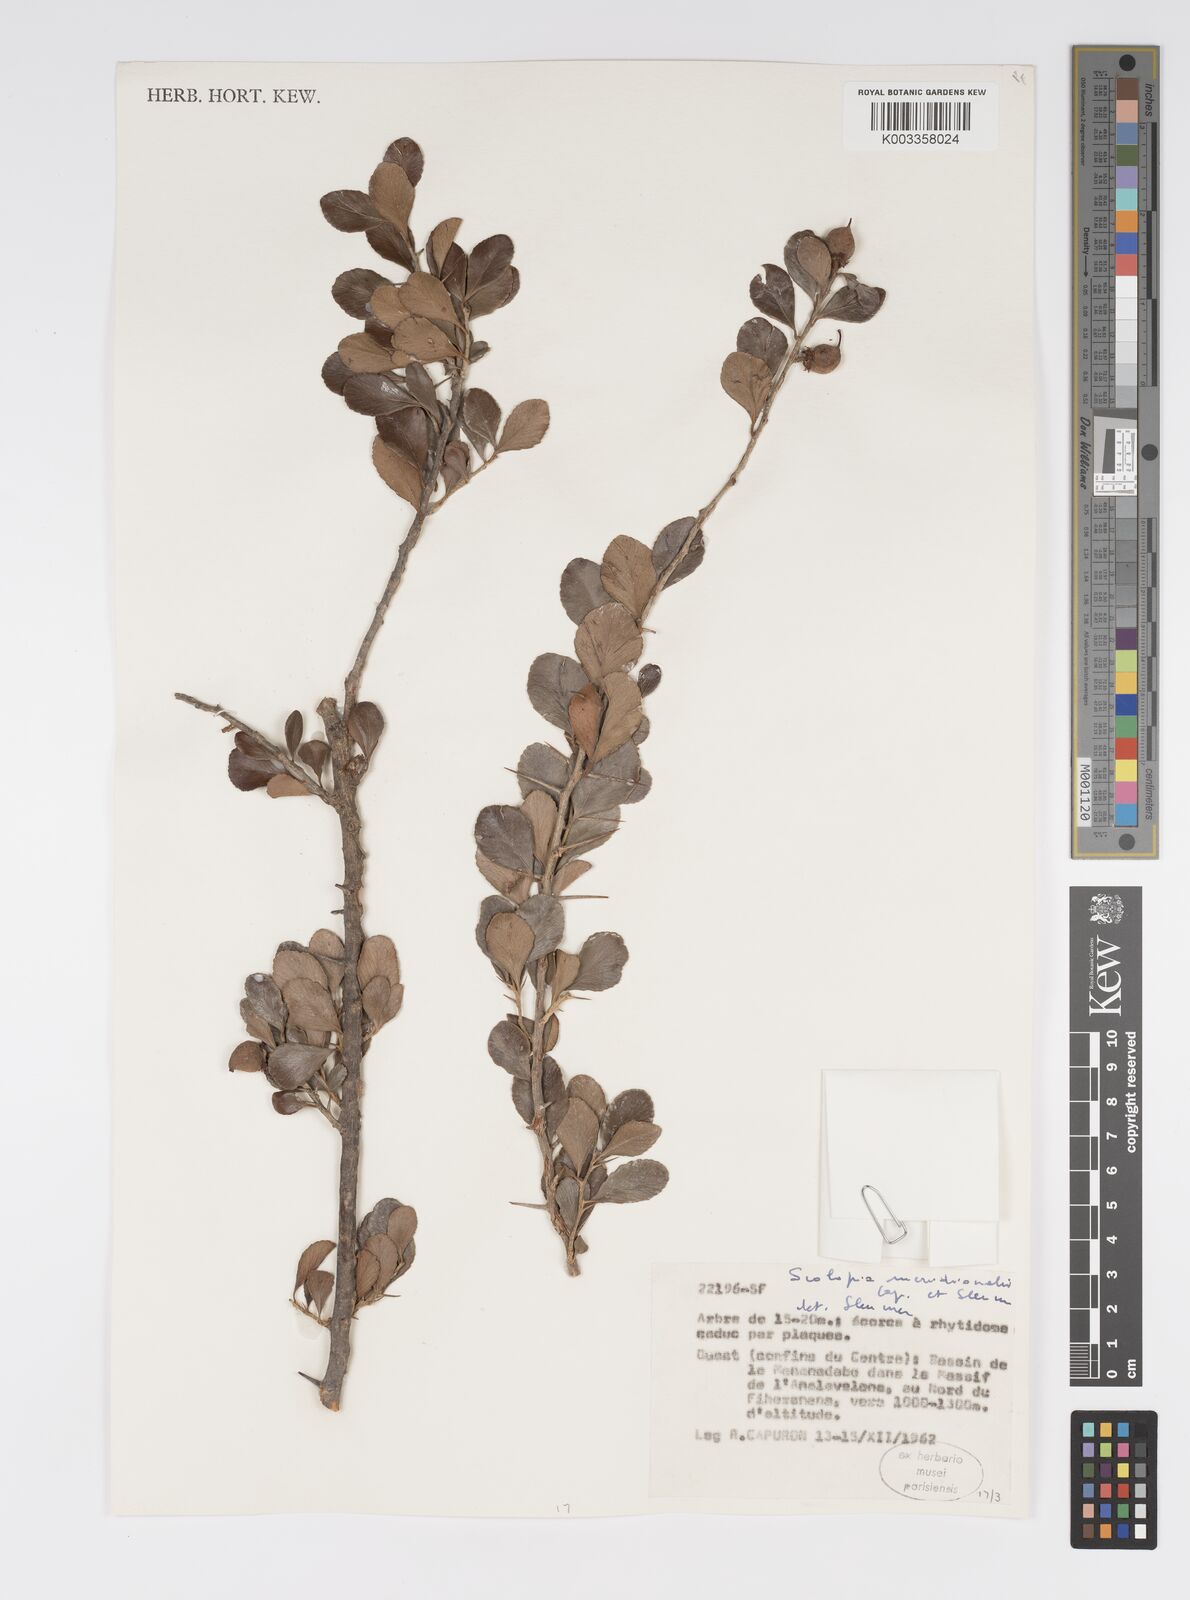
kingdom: Plantae
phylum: Tracheophyta
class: Magnoliopsida
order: Malpighiales
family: Salicaceae
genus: Scolopia
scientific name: Scolopia meridionalis
